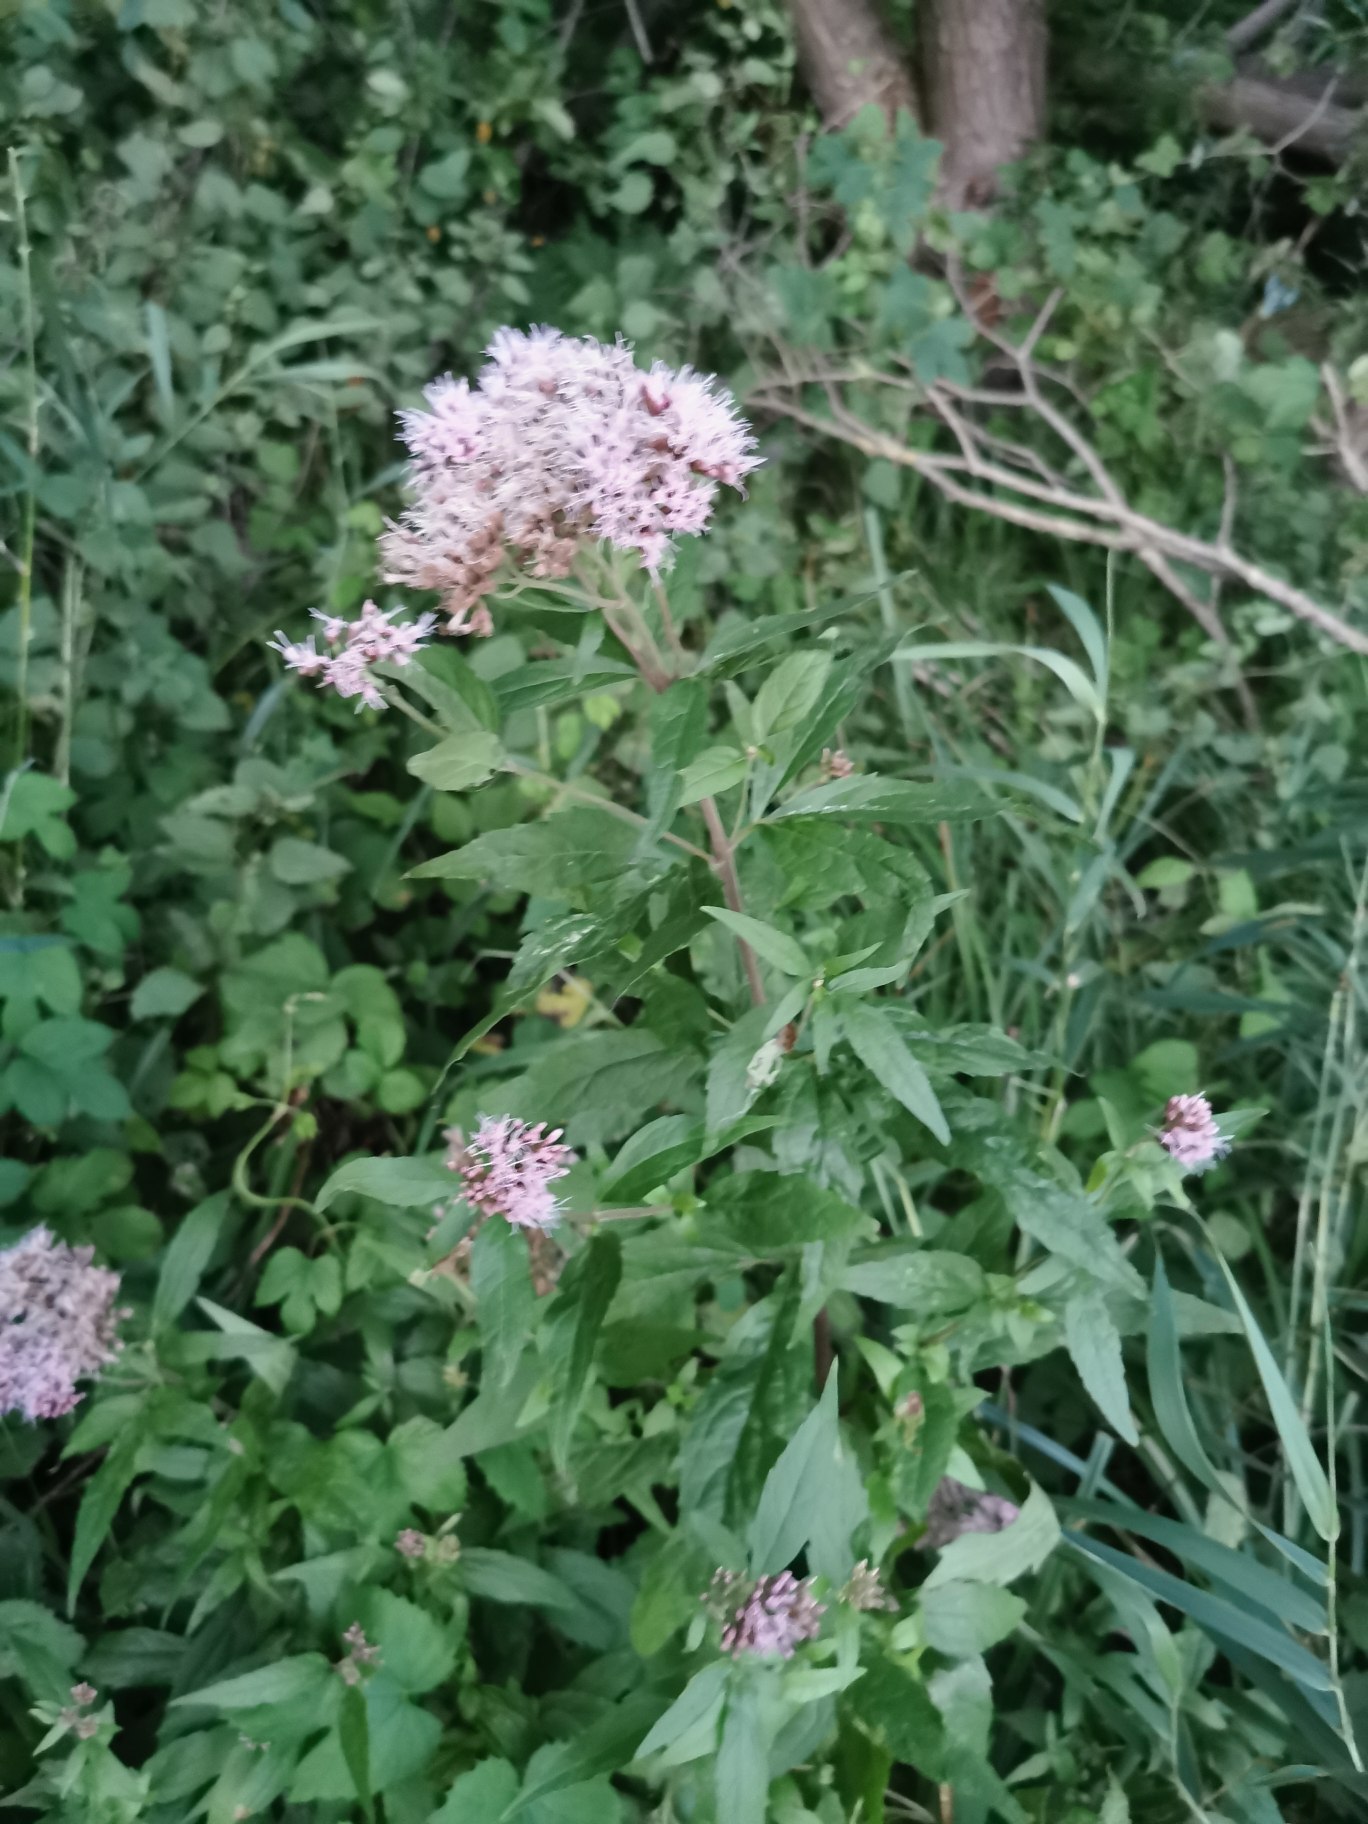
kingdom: Plantae
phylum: Tracheophyta
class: Magnoliopsida
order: Asterales
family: Asteraceae
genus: Eupatorium
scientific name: Eupatorium cannabinum
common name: Hjortetrøst
